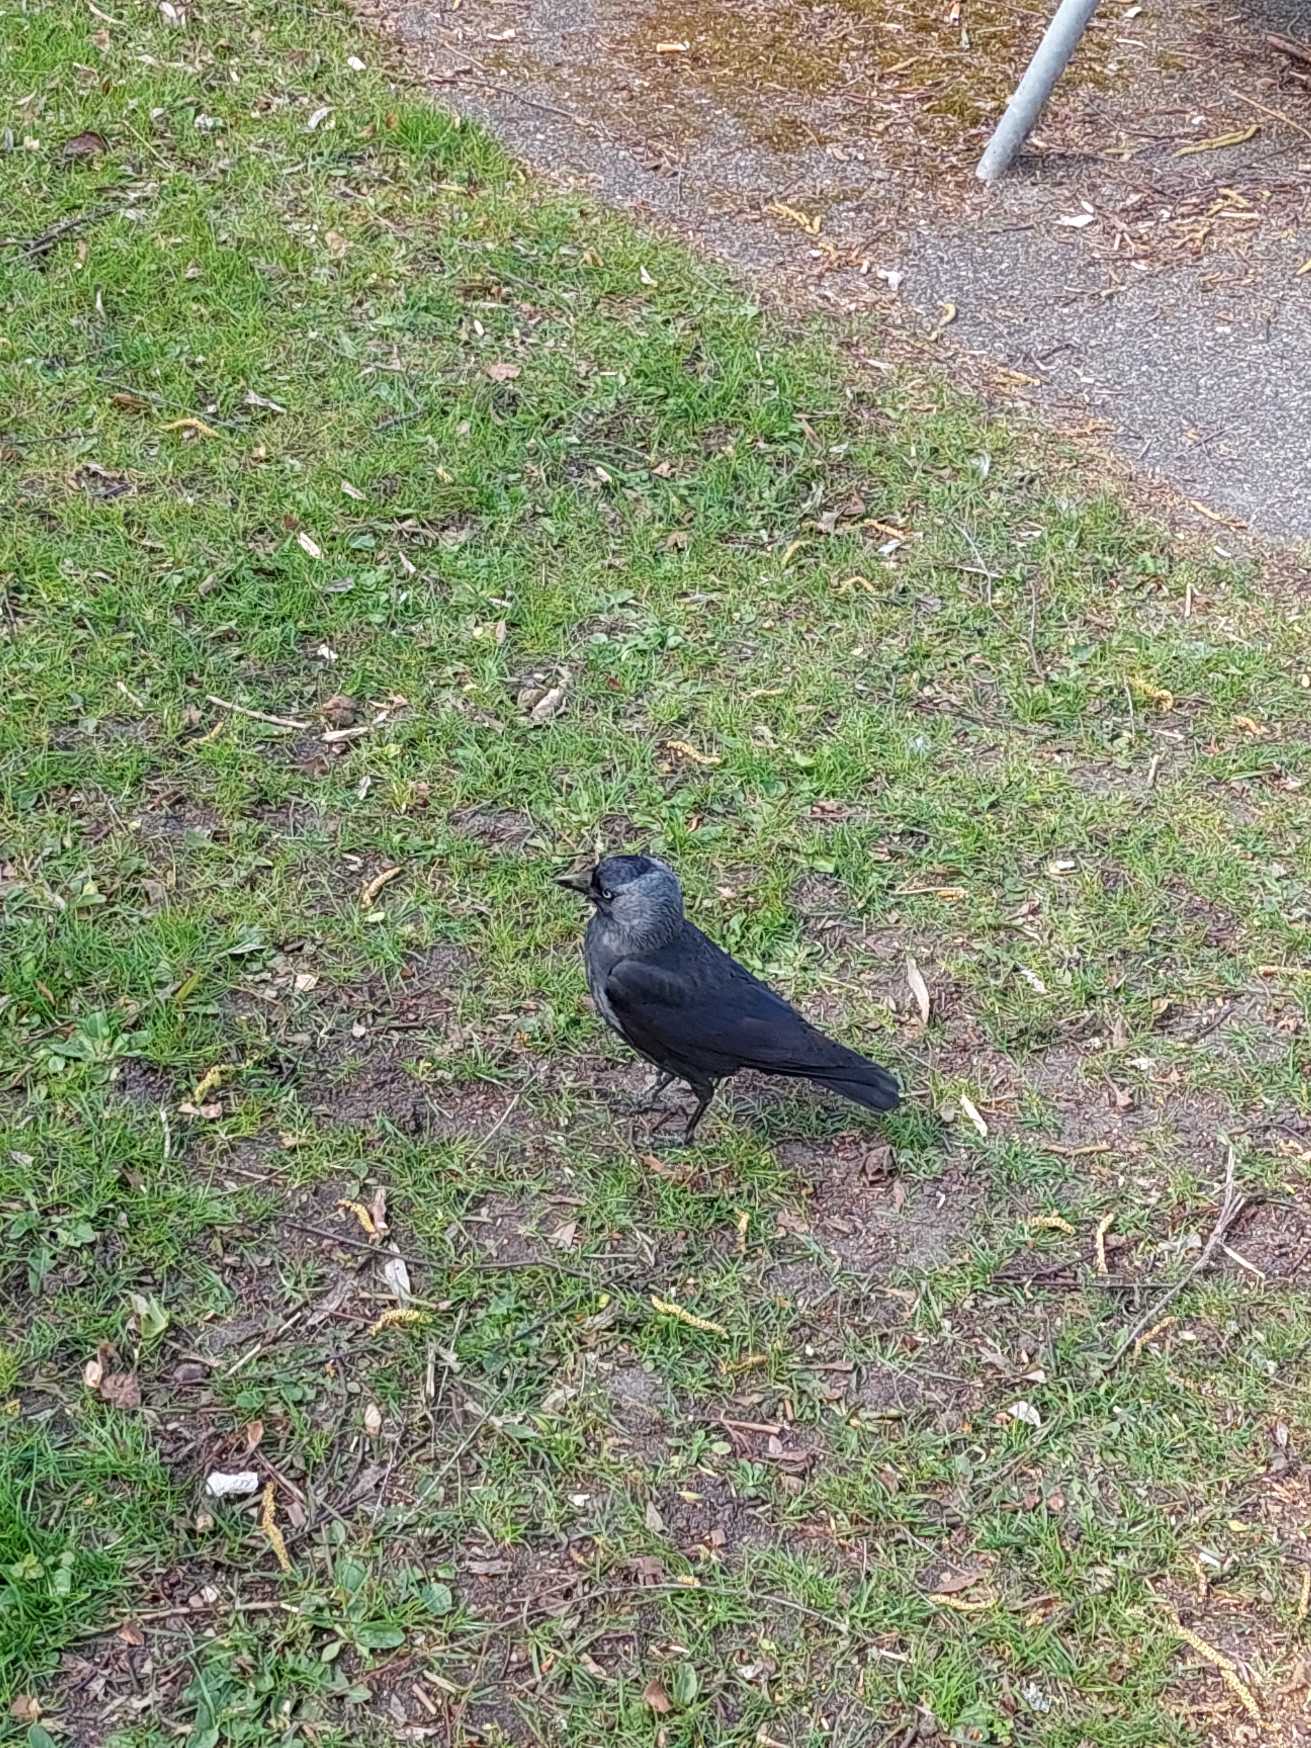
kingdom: Animalia
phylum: Chordata
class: Aves
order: Passeriformes
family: Corvidae
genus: Coloeus
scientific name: Coloeus monedula
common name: Allike
